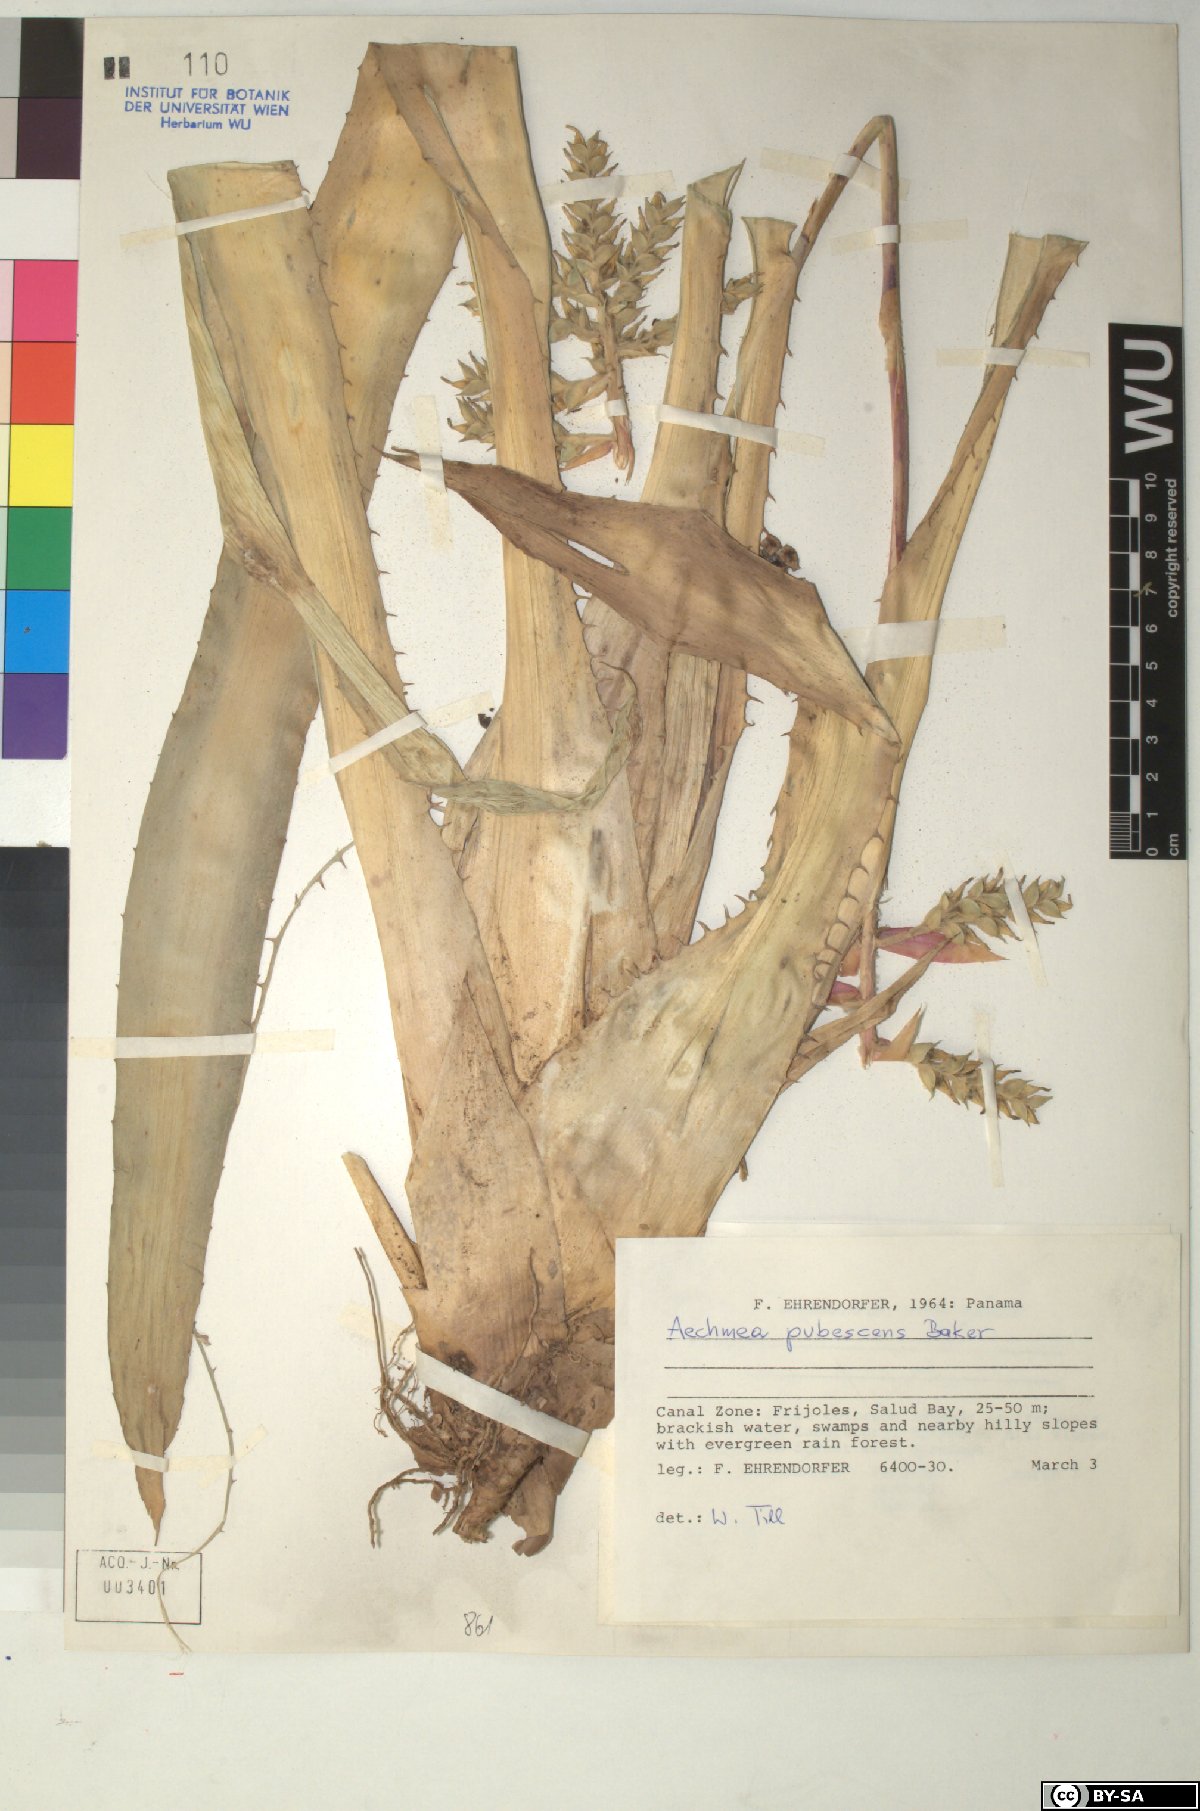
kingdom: Plantae
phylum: Tracheophyta
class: Liliopsida
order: Poales
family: Bromeliaceae
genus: Aechmea
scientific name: Aechmea
